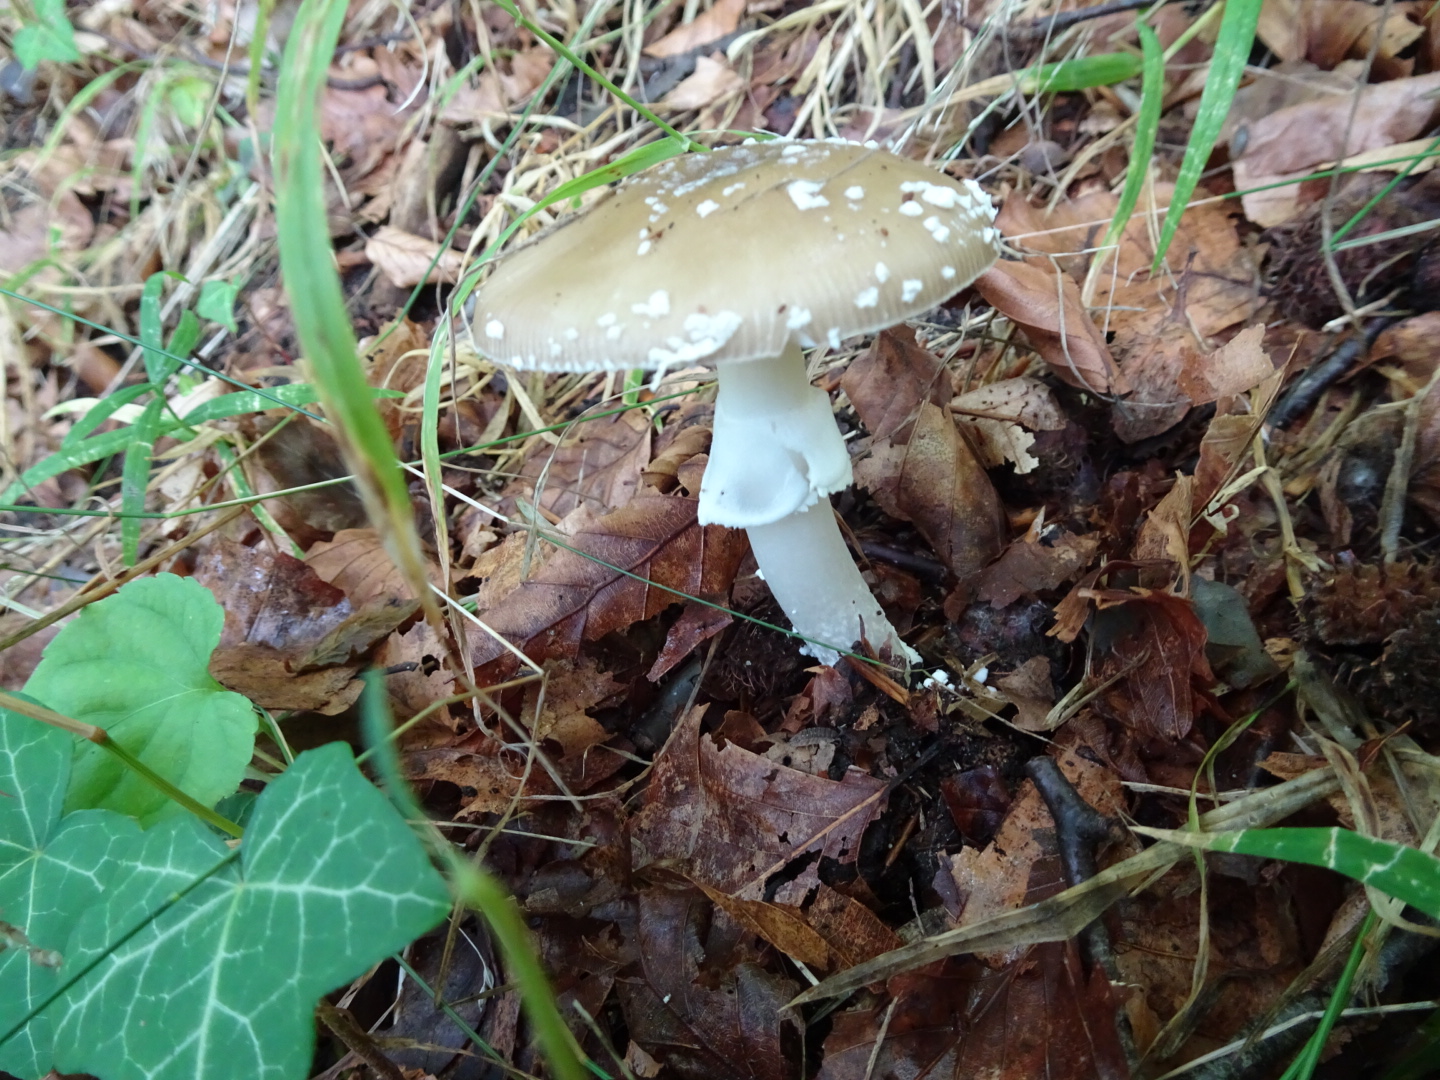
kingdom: Fungi
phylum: Basidiomycota
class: Agaricomycetes
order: Agaricales
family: Amanitaceae
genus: Amanita
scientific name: Amanita pantherina
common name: panter-fluesvamp
